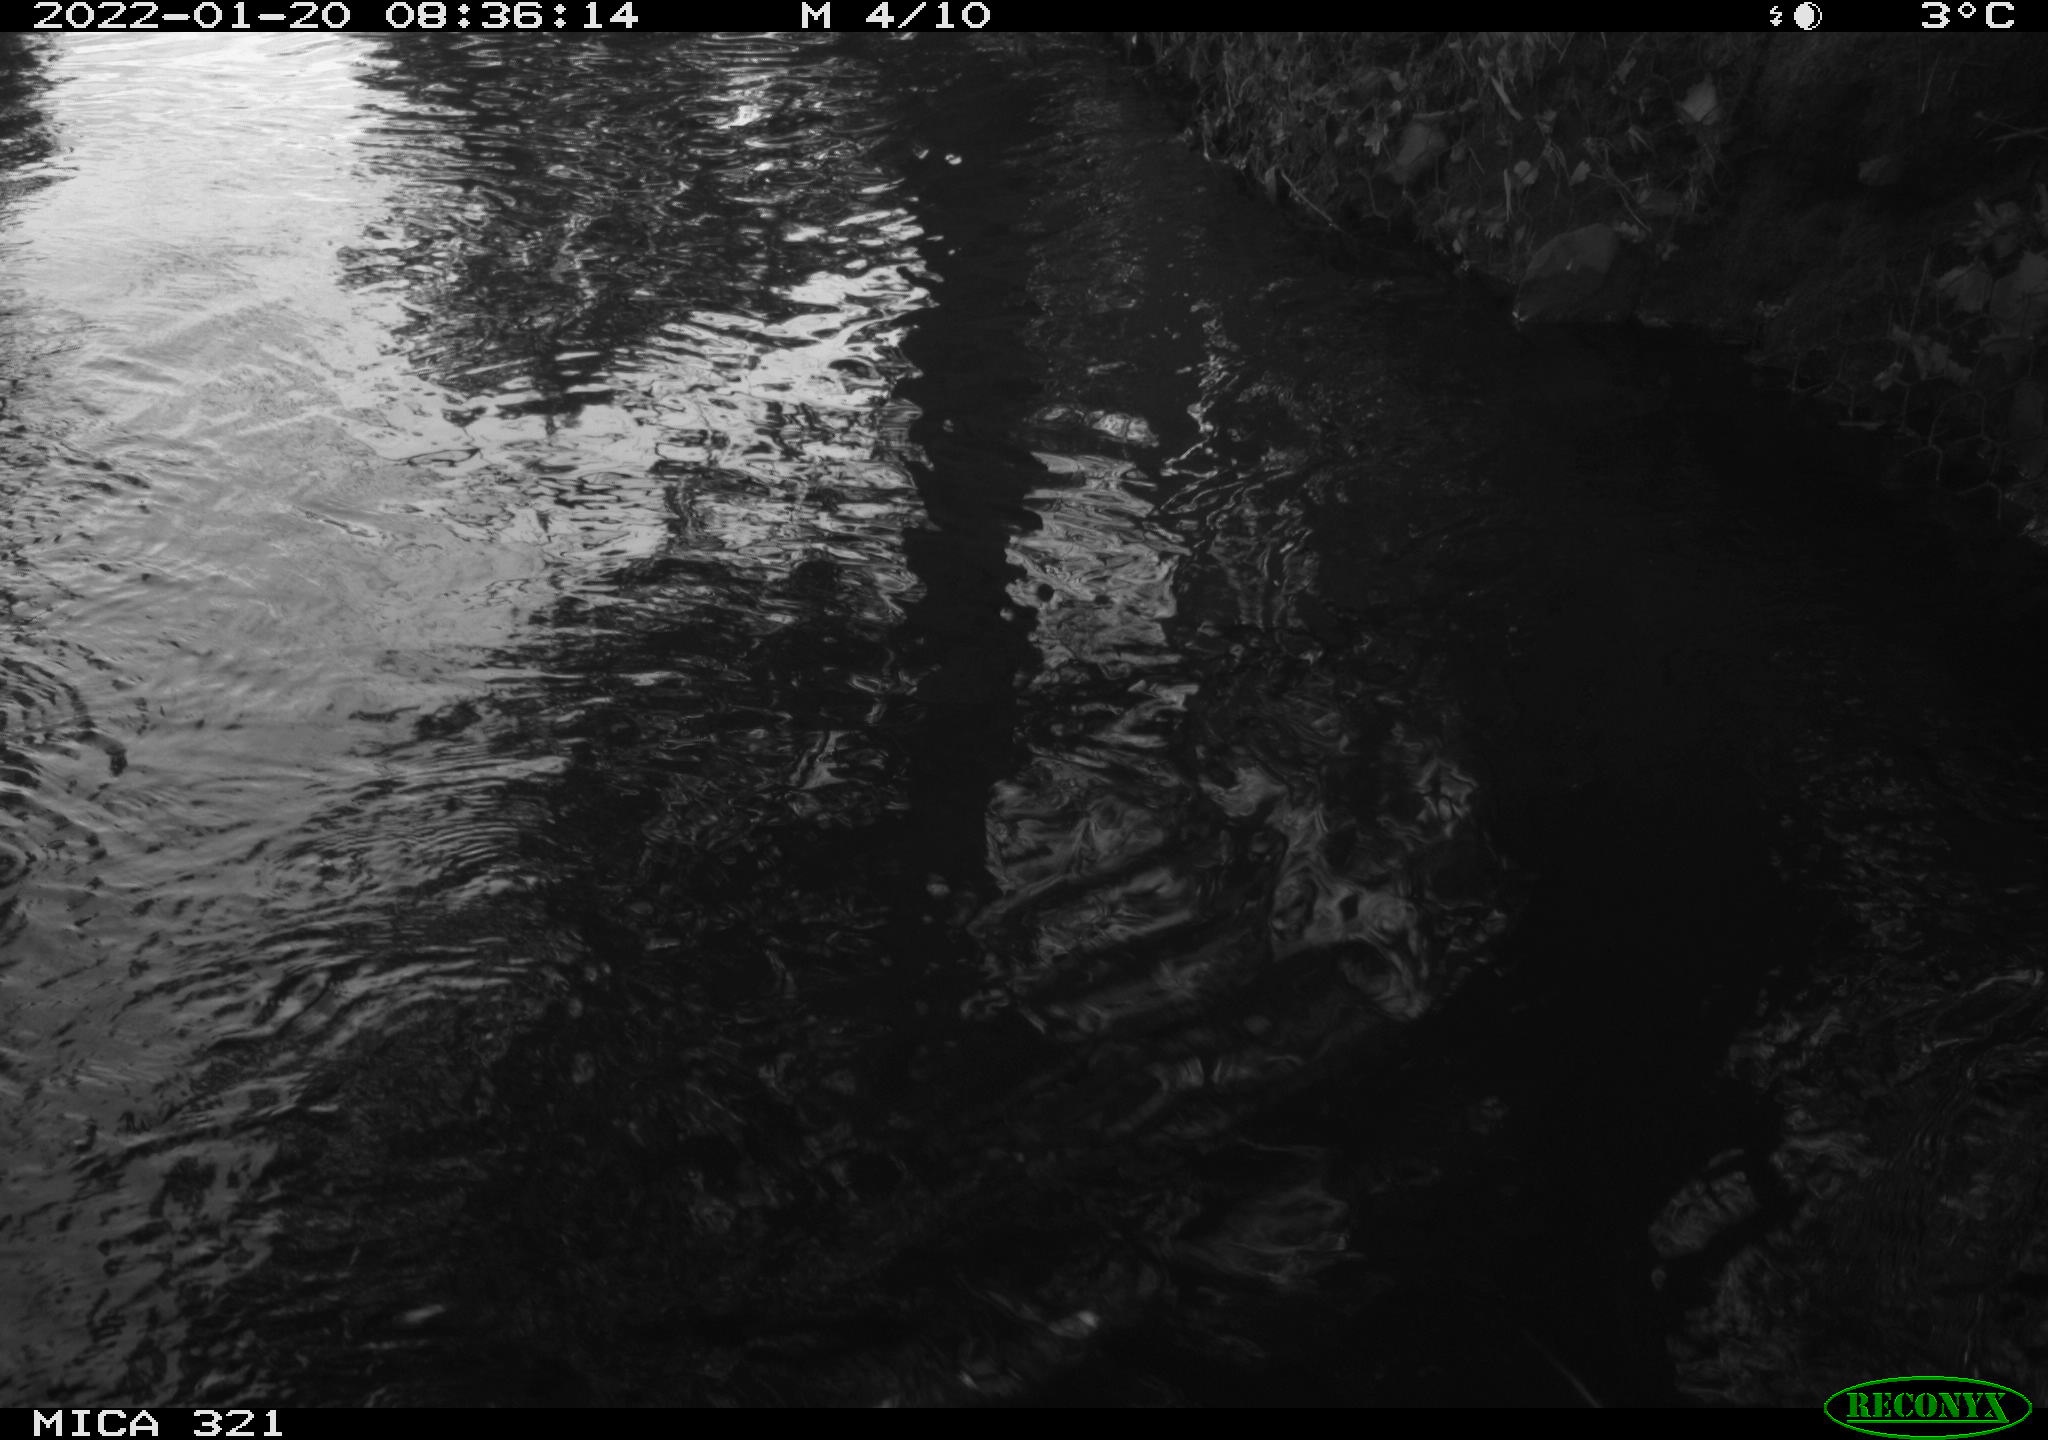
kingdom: Animalia
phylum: Chordata
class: Aves
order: Anseriformes
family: Anatidae
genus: Anas
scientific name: Anas platyrhynchos
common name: Mallard
